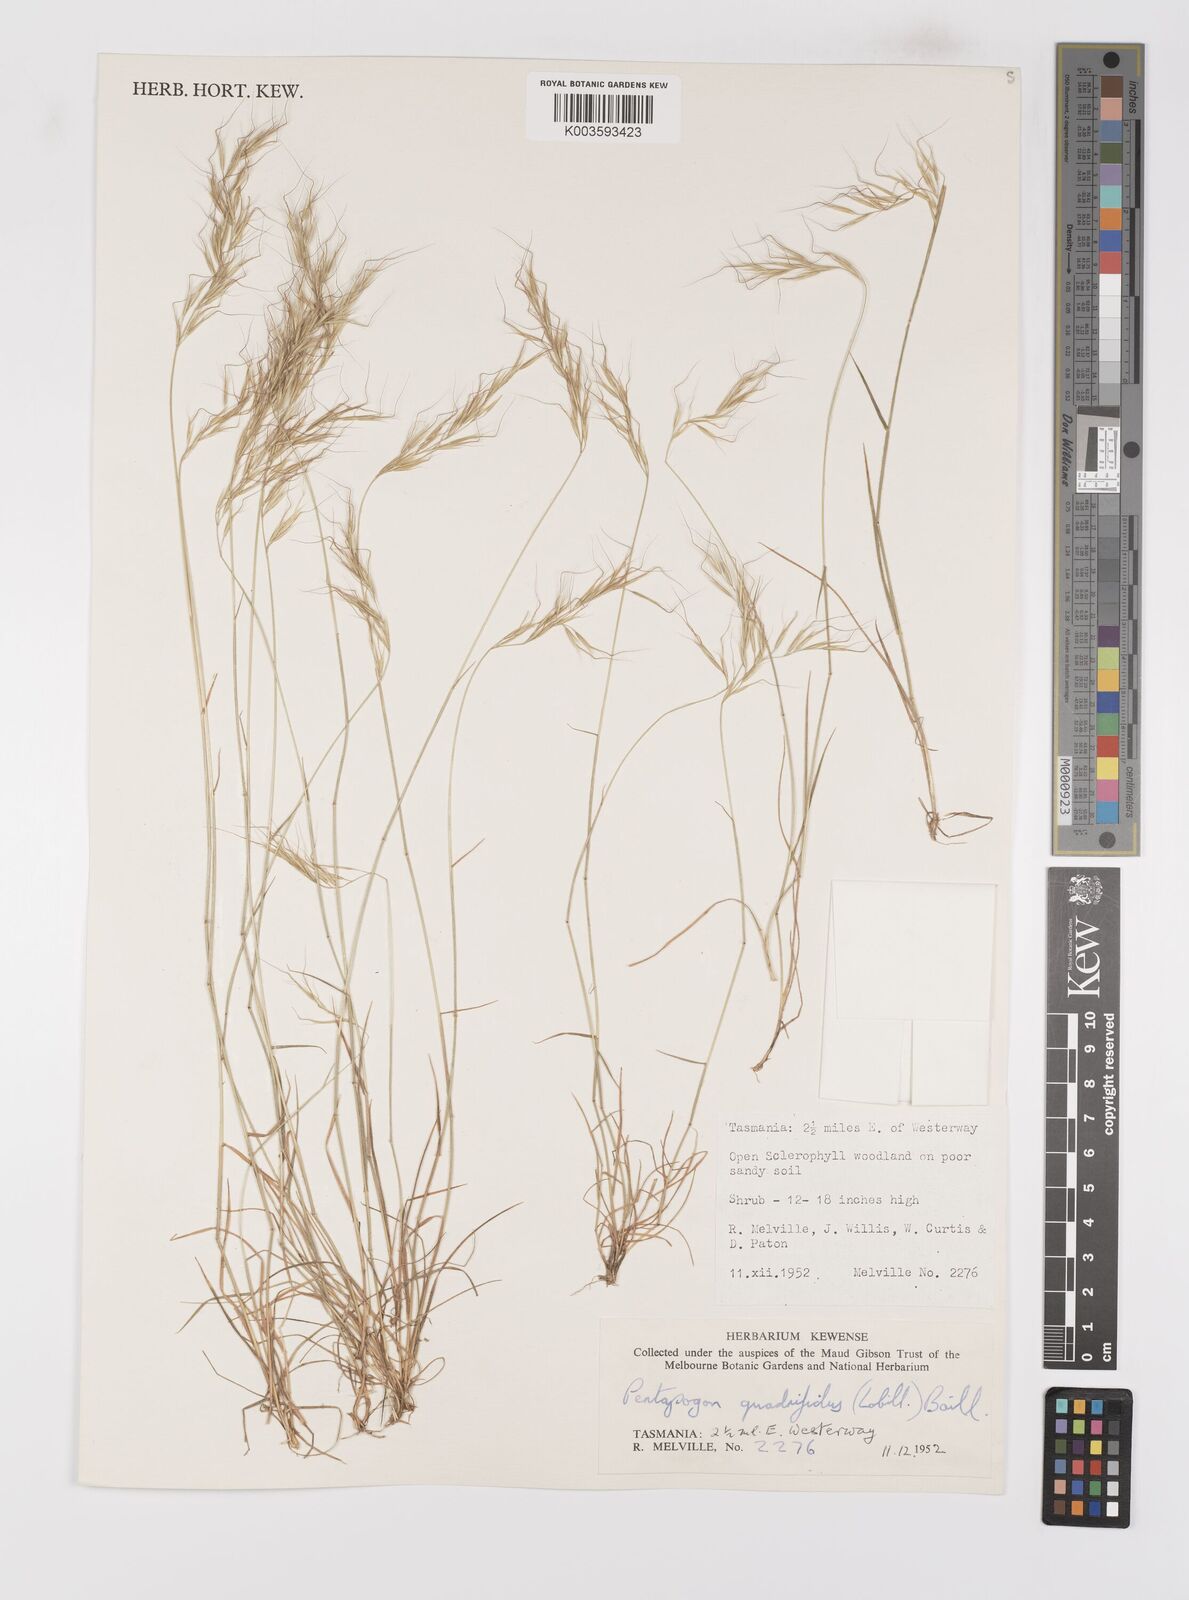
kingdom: Plantae
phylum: Tracheophyta
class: Liliopsida
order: Poales
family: Poaceae
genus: Pentapogon
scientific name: Pentapogon quadrifidus
